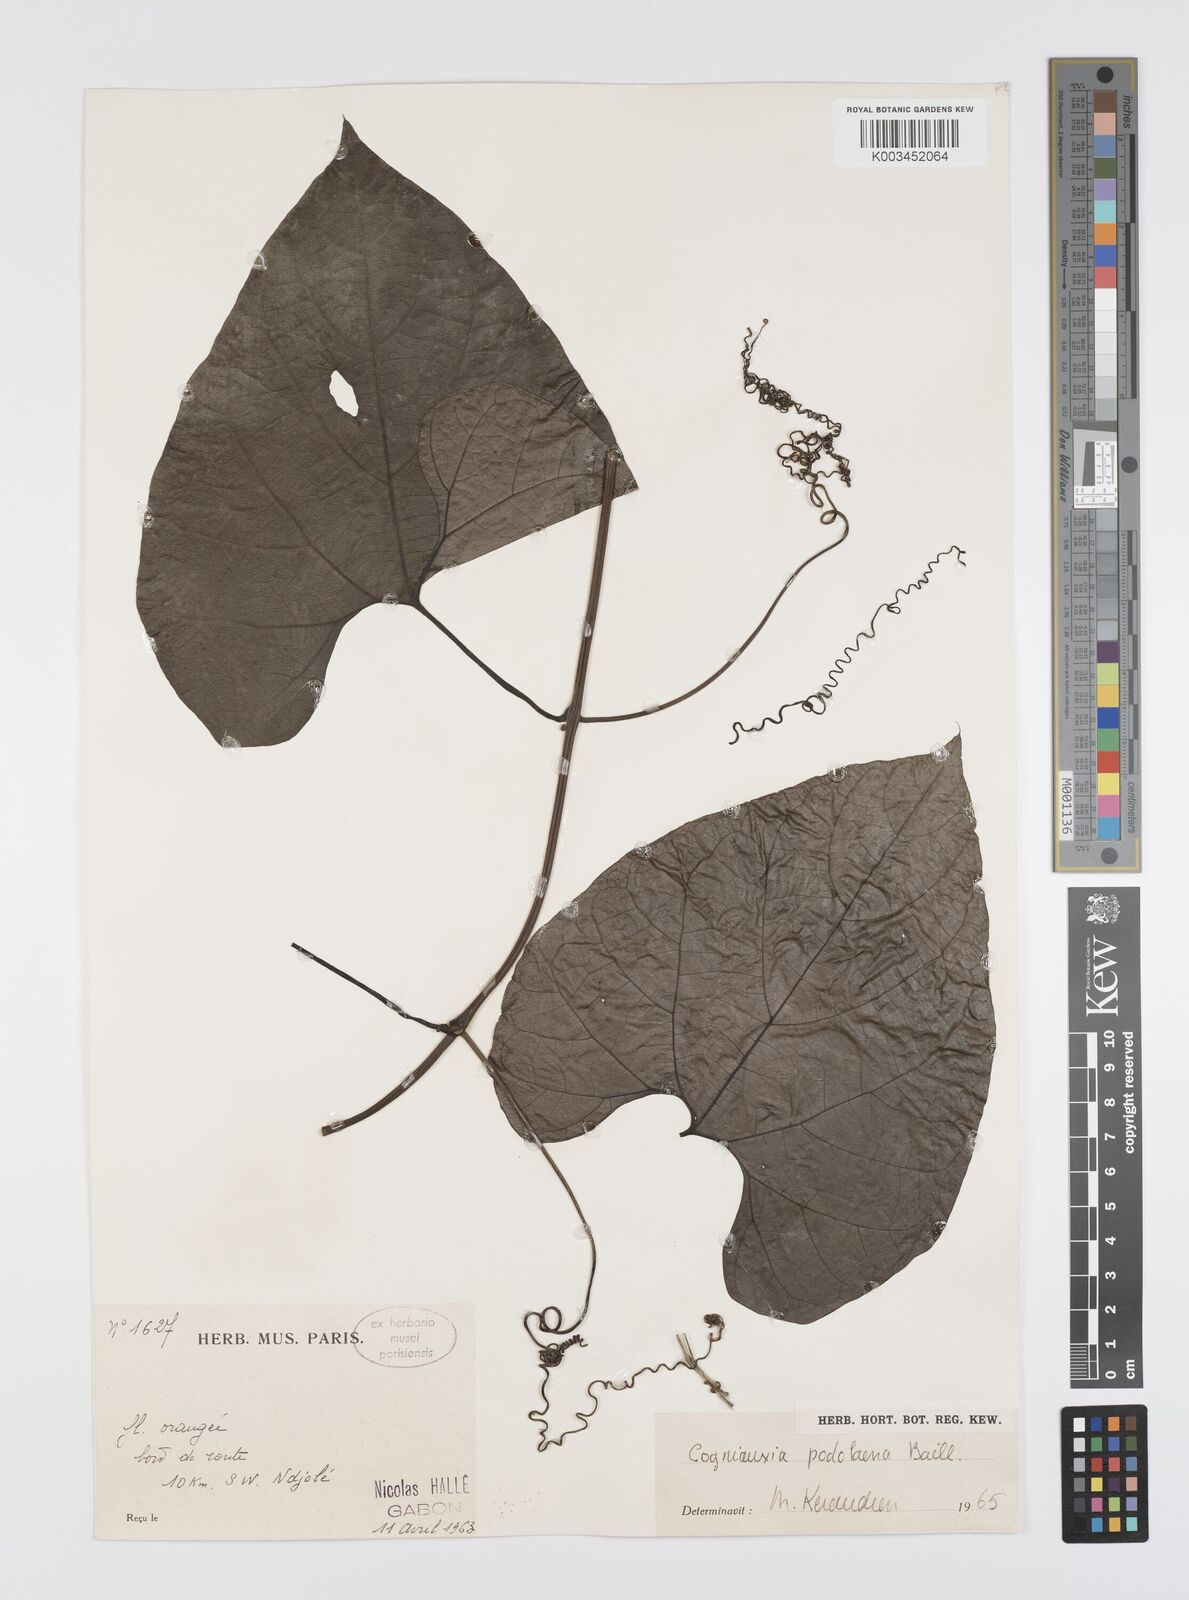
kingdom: Plantae
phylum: Tracheophyta
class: Magnoliopsida
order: Cucurbitales
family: Cucurbitaceae
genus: Cogniauxia
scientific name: Cogniauxia podolaena
